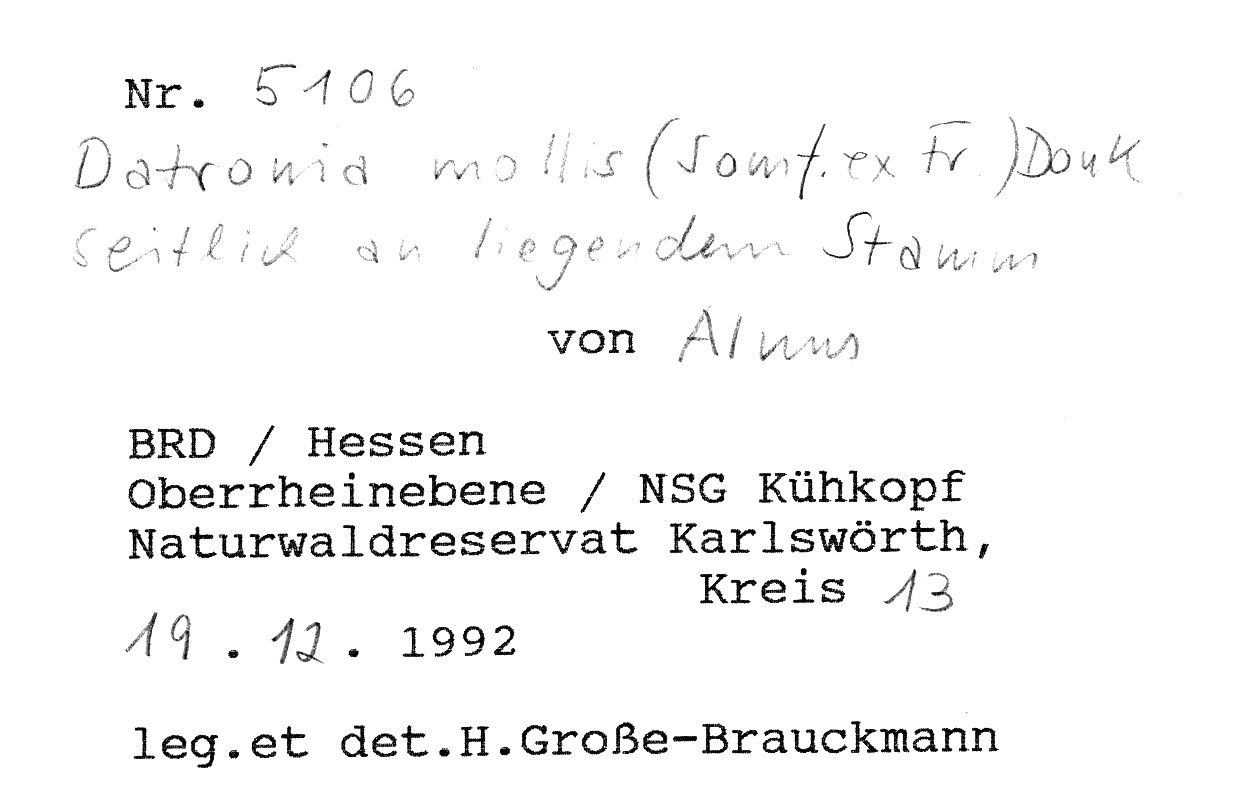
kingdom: Plantae
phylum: Tracheophyta
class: Magnoliopsida
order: Fagales
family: Betulaceae
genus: Alnus
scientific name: Alnus
